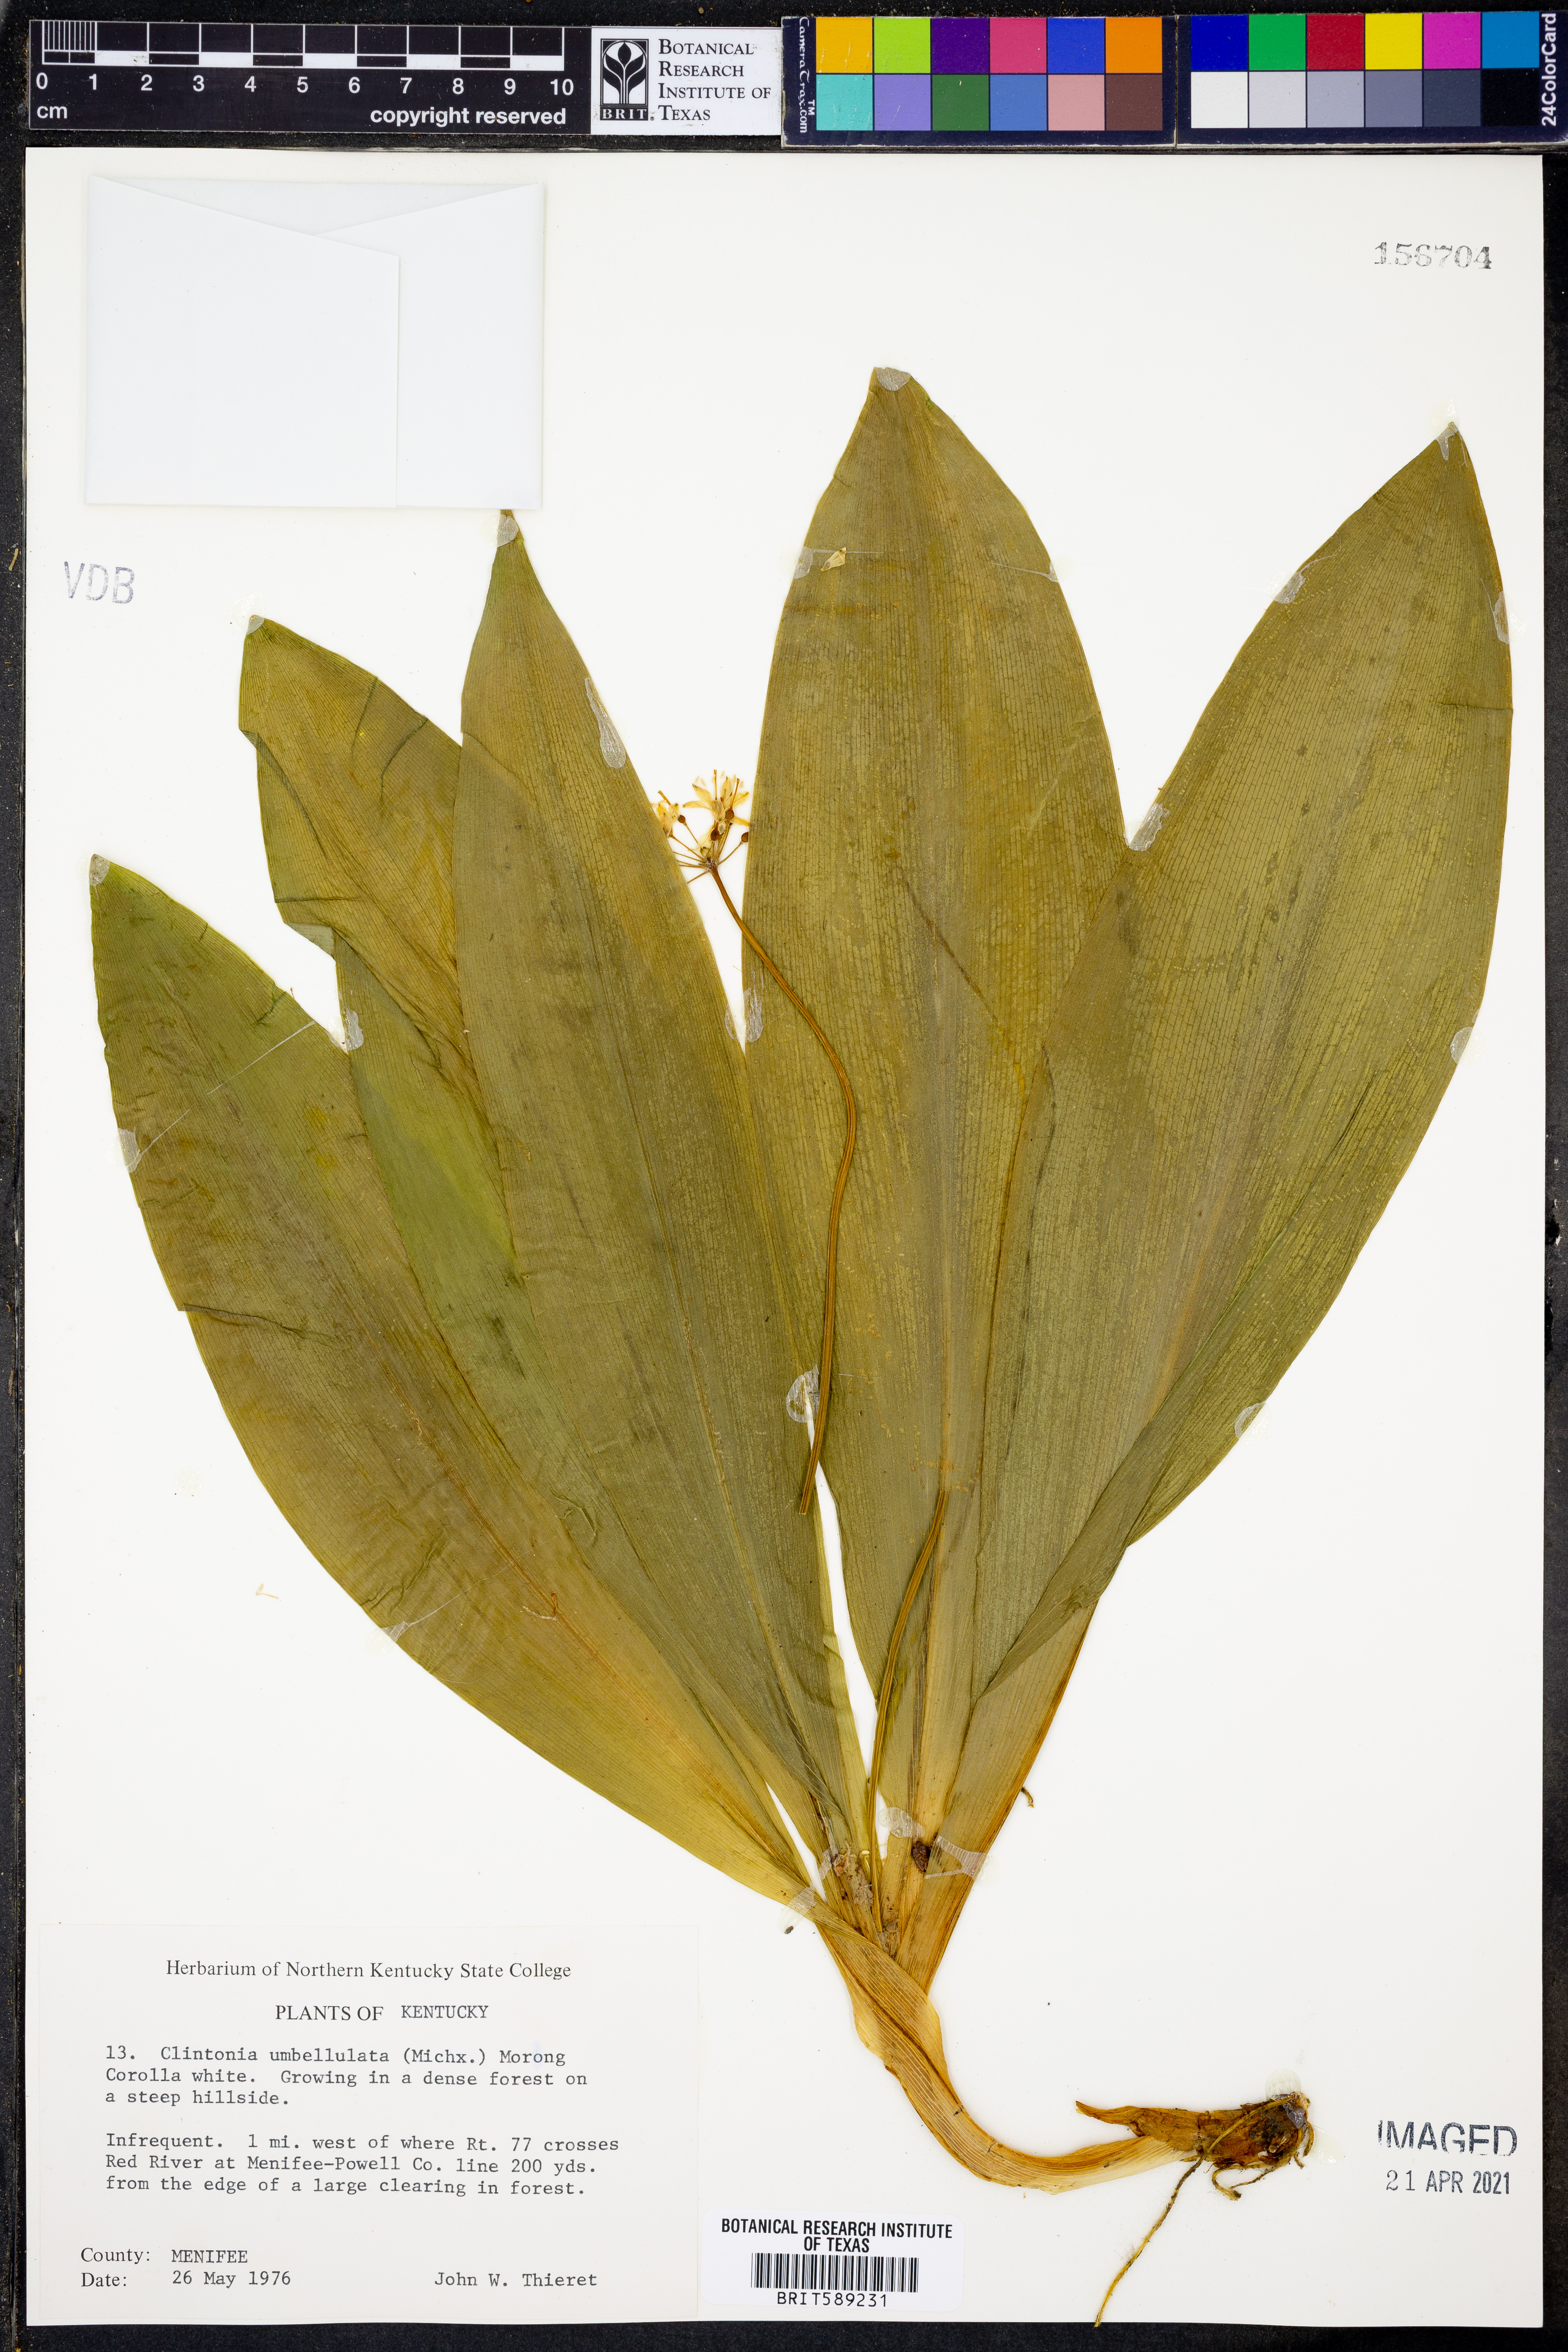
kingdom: Plantae
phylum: Tracheophyta
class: Liliopsida
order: Liliales
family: Liliaceae
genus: Clintonia
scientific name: Clintonia umbellulata
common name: Speckle wood-lily
